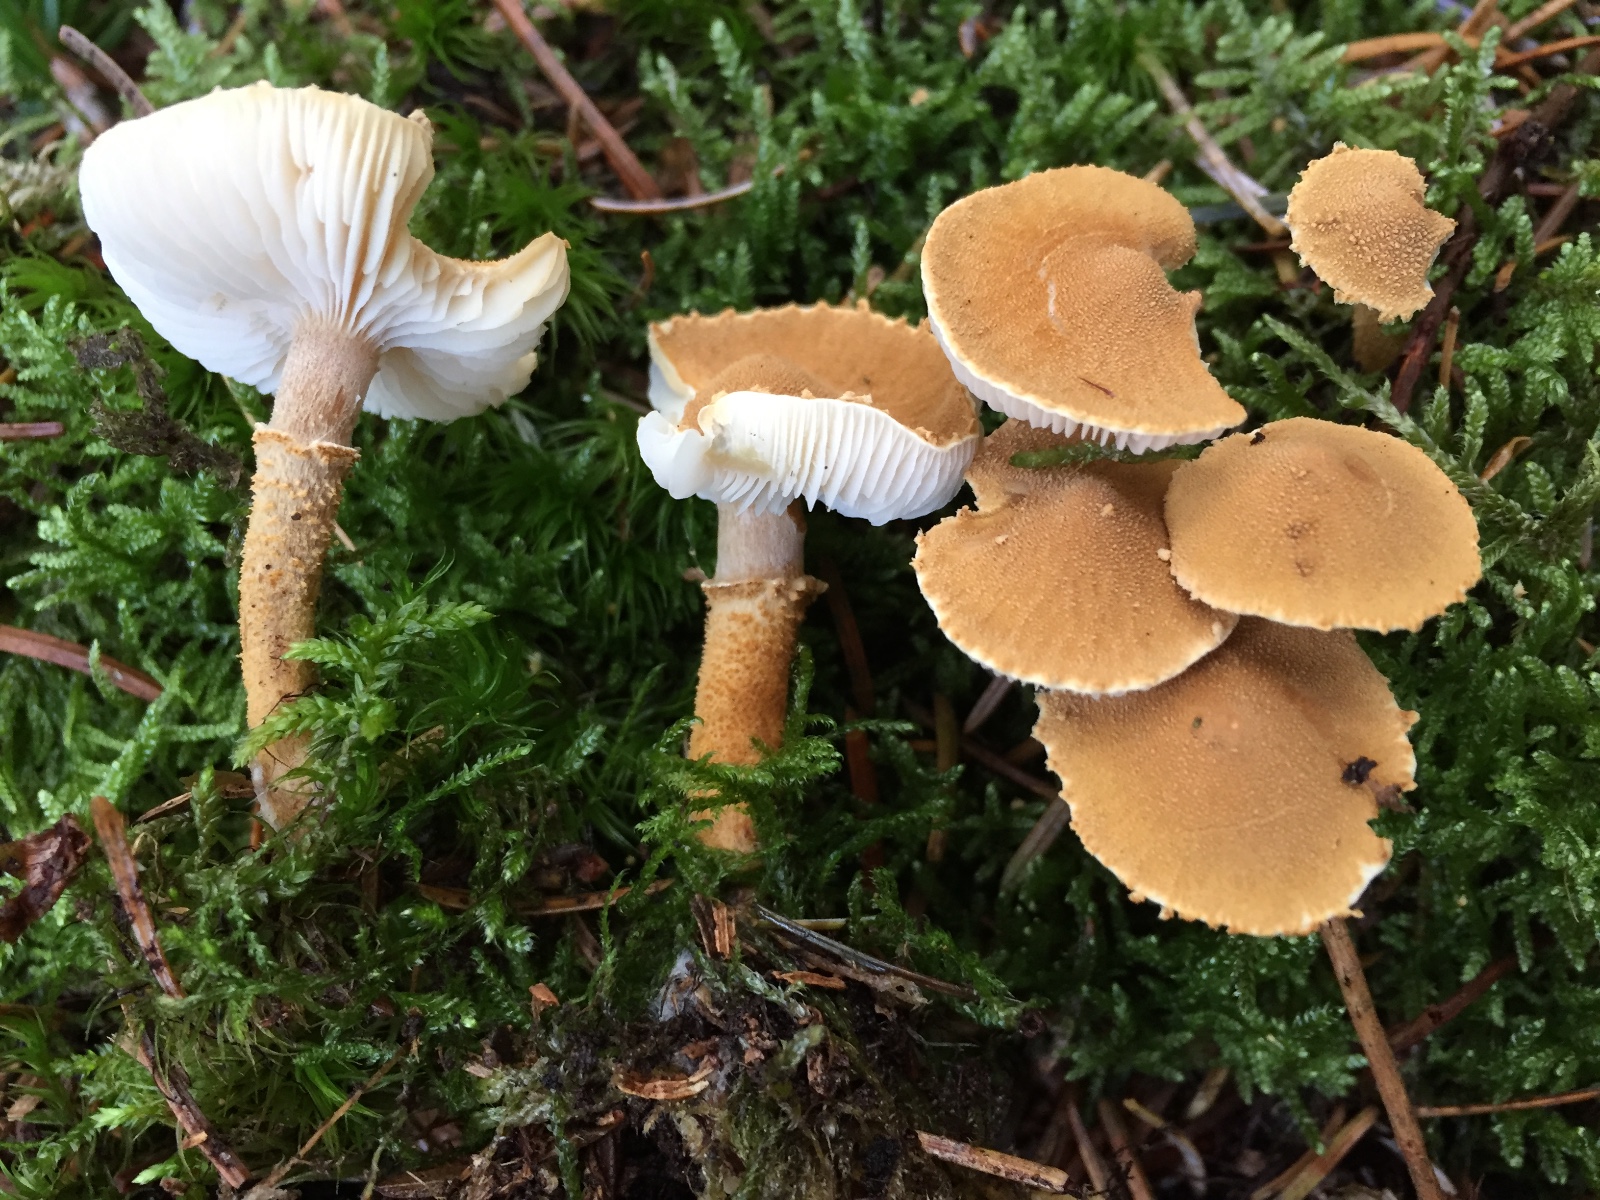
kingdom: Fungi
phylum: Basidiomycota
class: Agaricomycetes
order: Agaricales
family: Tricholomataceae
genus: Cystoderma
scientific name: Cystoderma amianthinum
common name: okkergul grynhat
